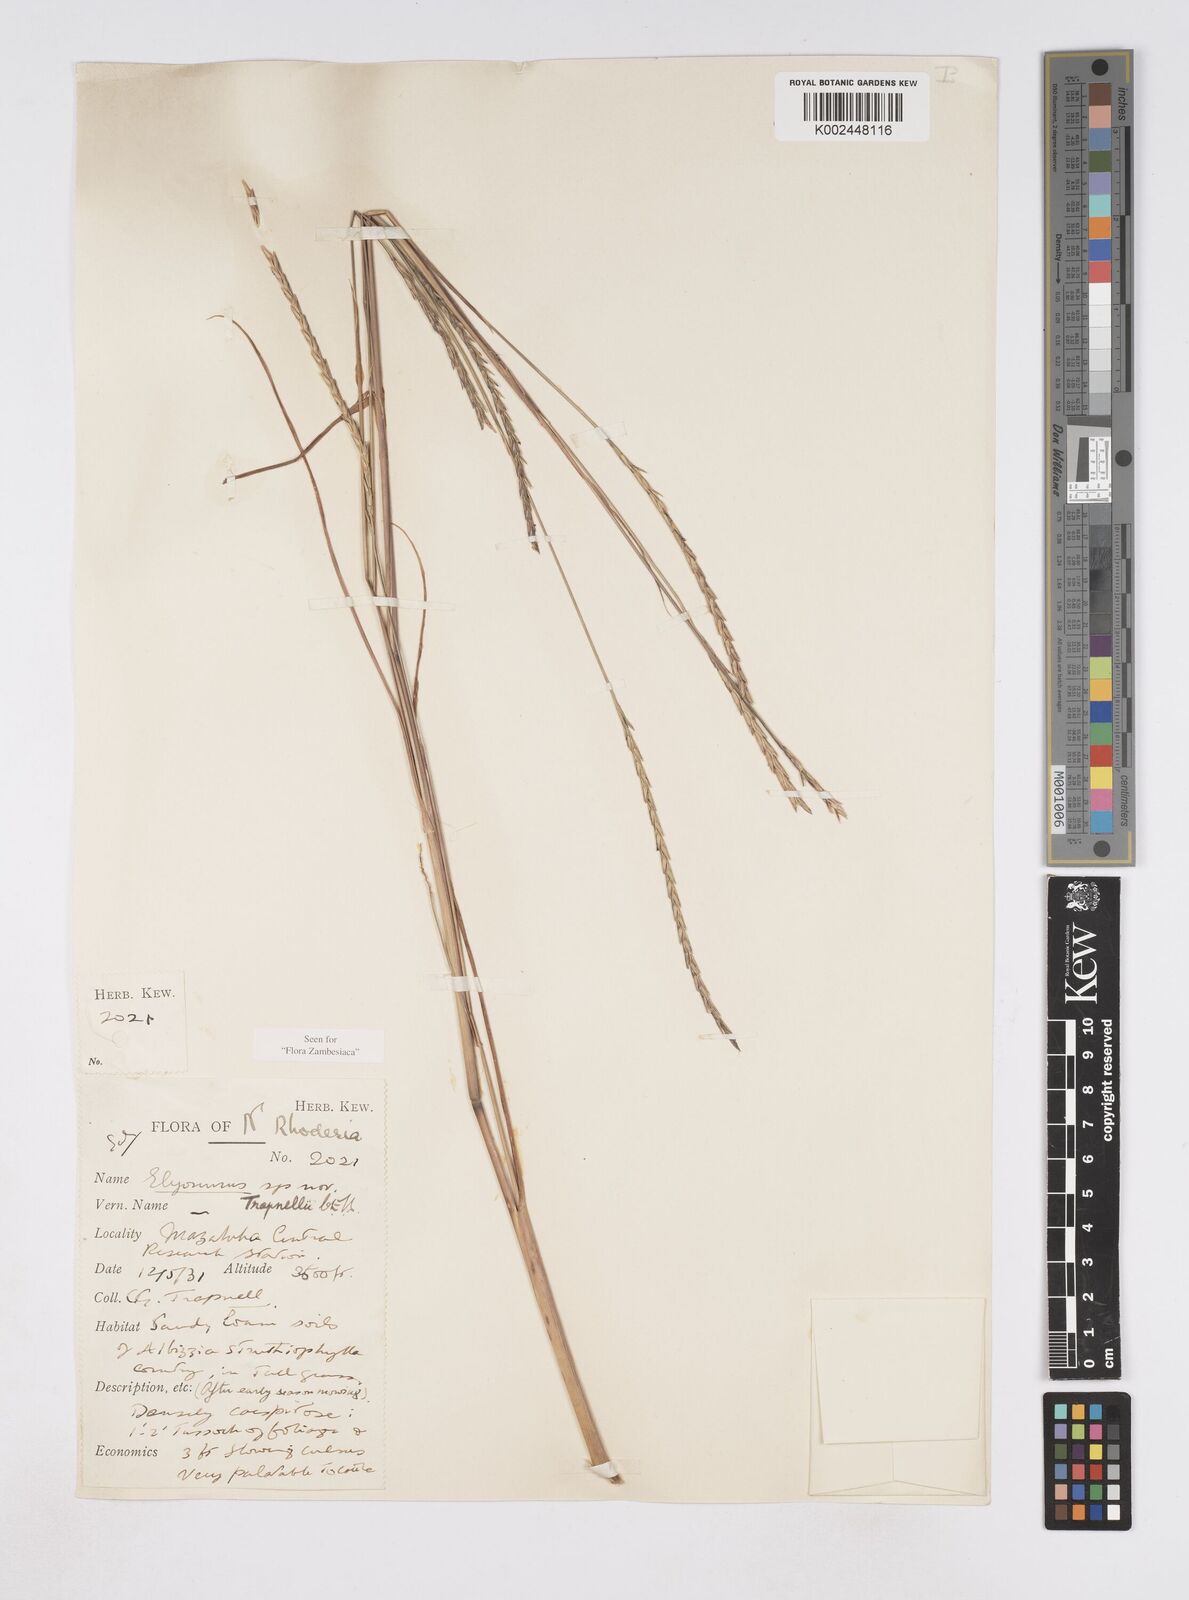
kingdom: Plantae
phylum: Tracheophyta
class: Liliopsida
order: Poales
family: Poaceae
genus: Elionurus
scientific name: Elionurus tripsacoides
